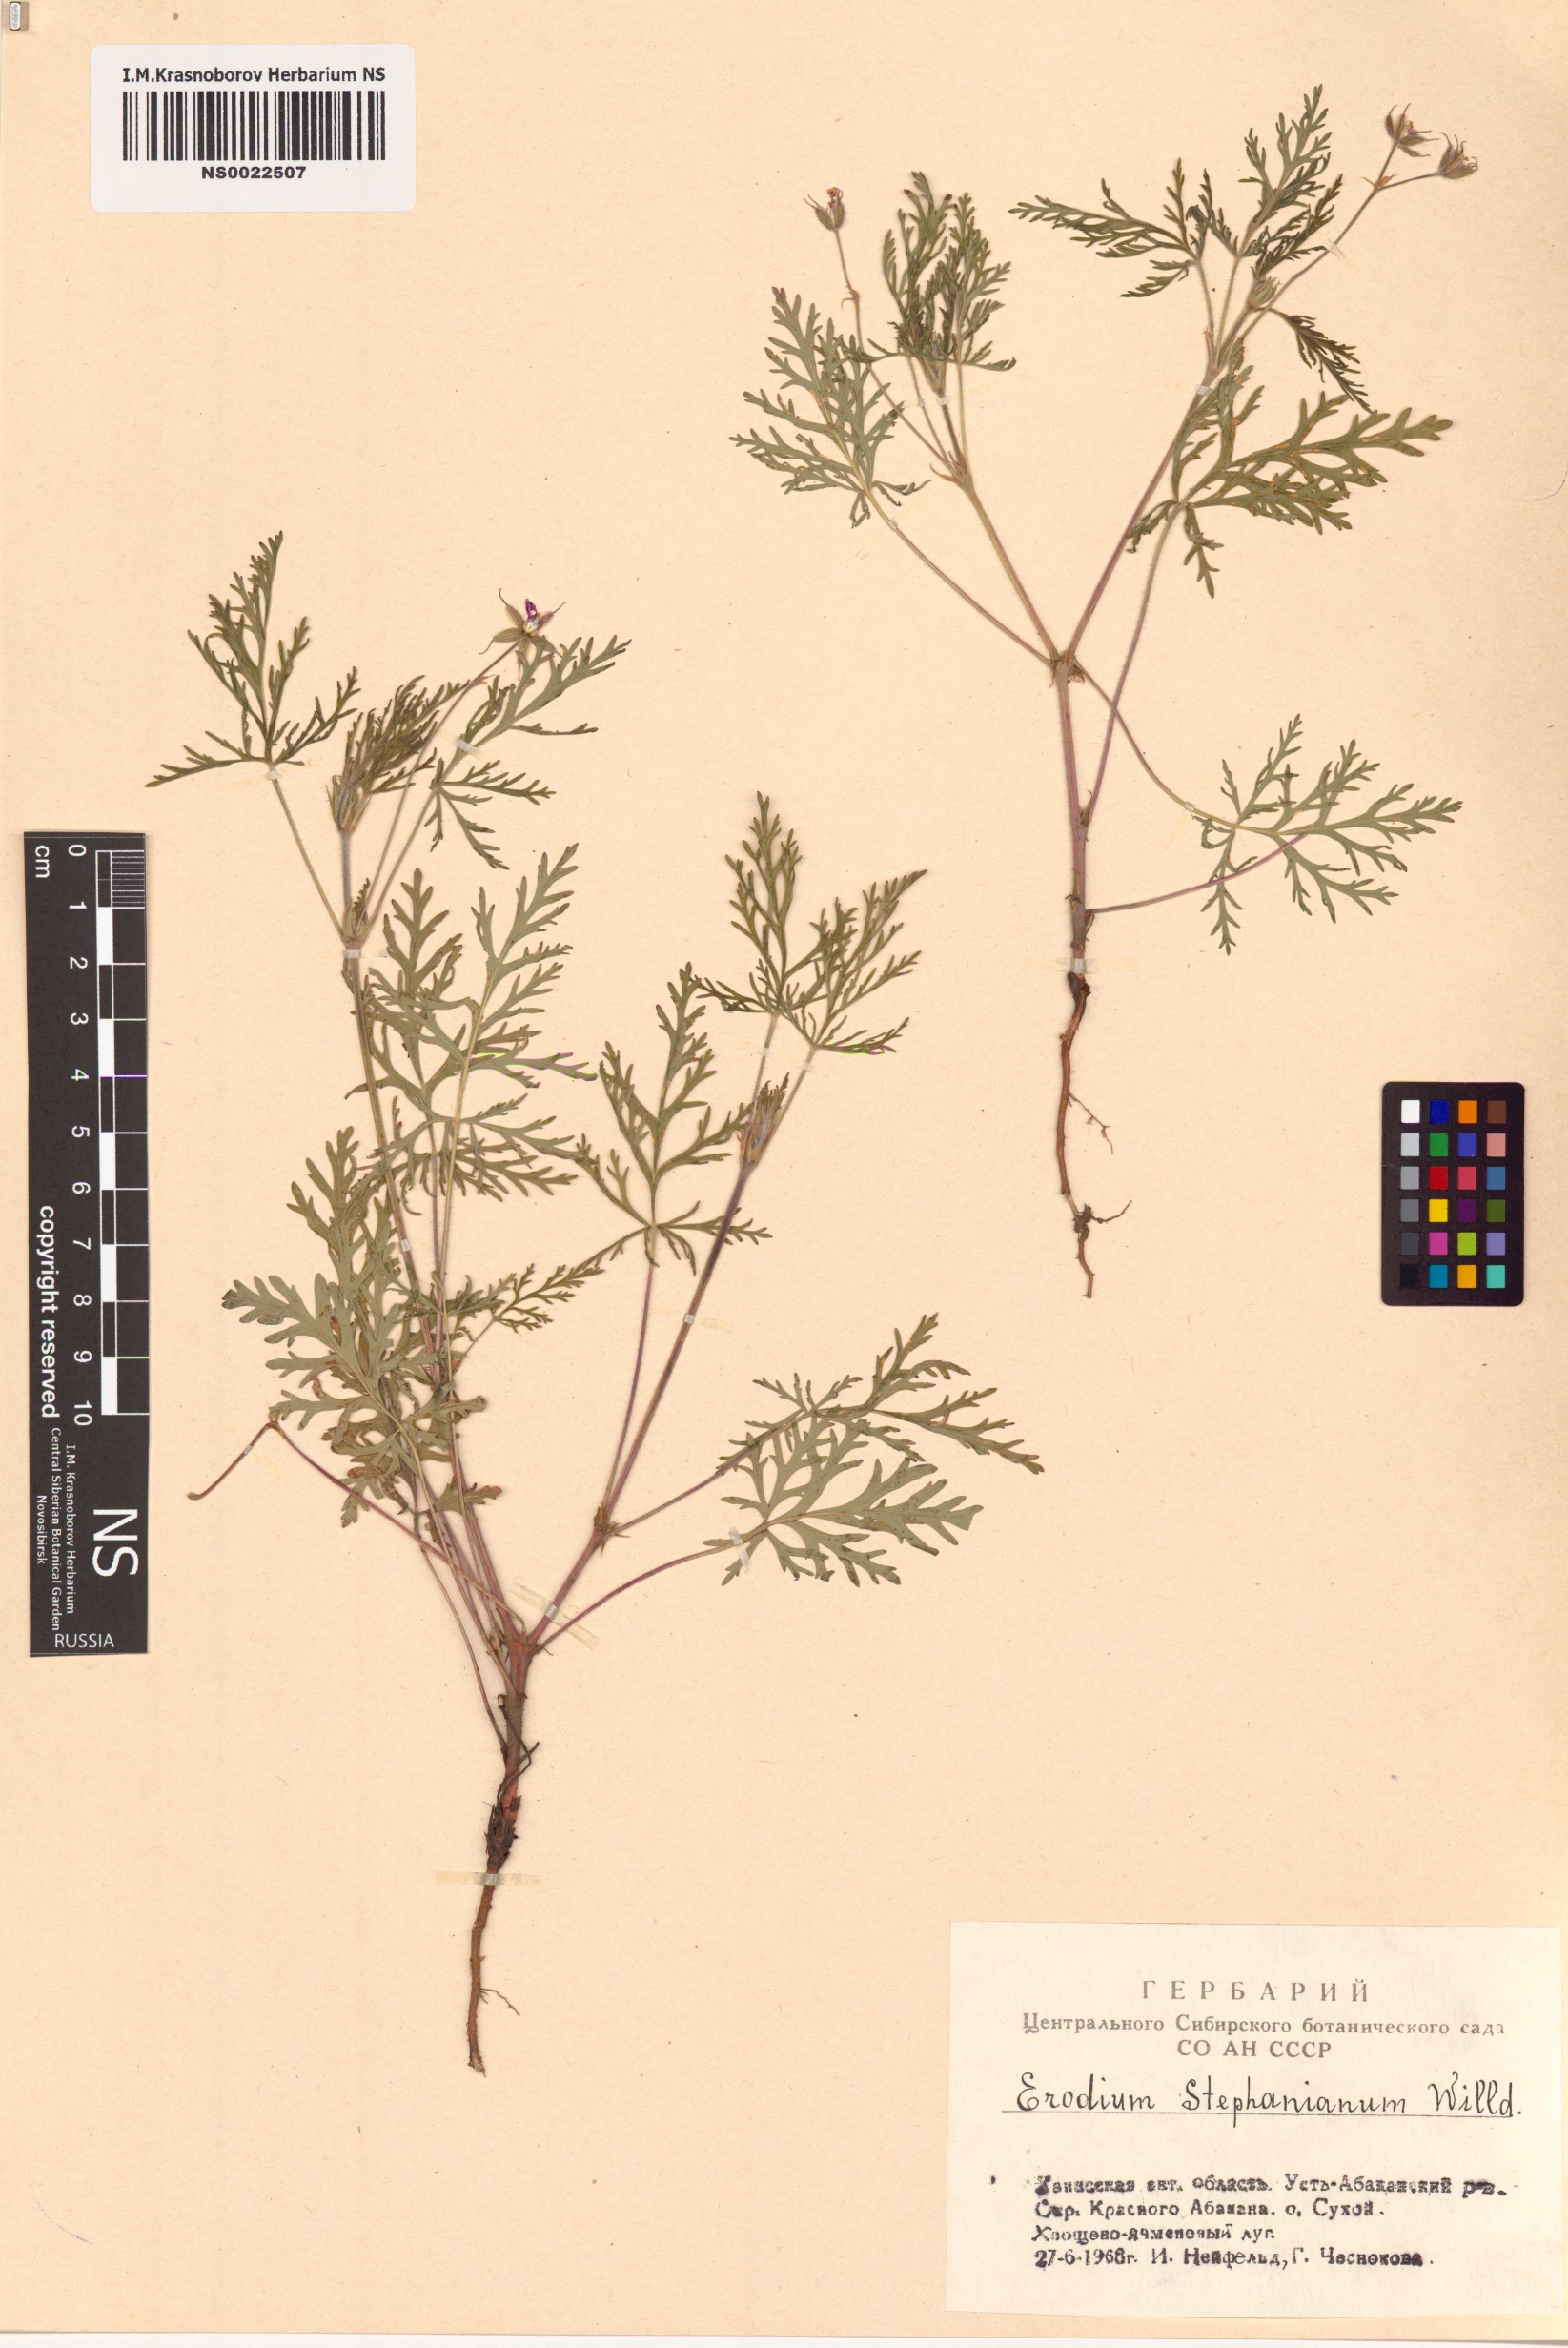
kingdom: Plantae
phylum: Tracheophyta
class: Magnoliopsida
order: Geraniales
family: Geraniaceae
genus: Erodium
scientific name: Erodium stephanianum
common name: Stephen's stork's bill
